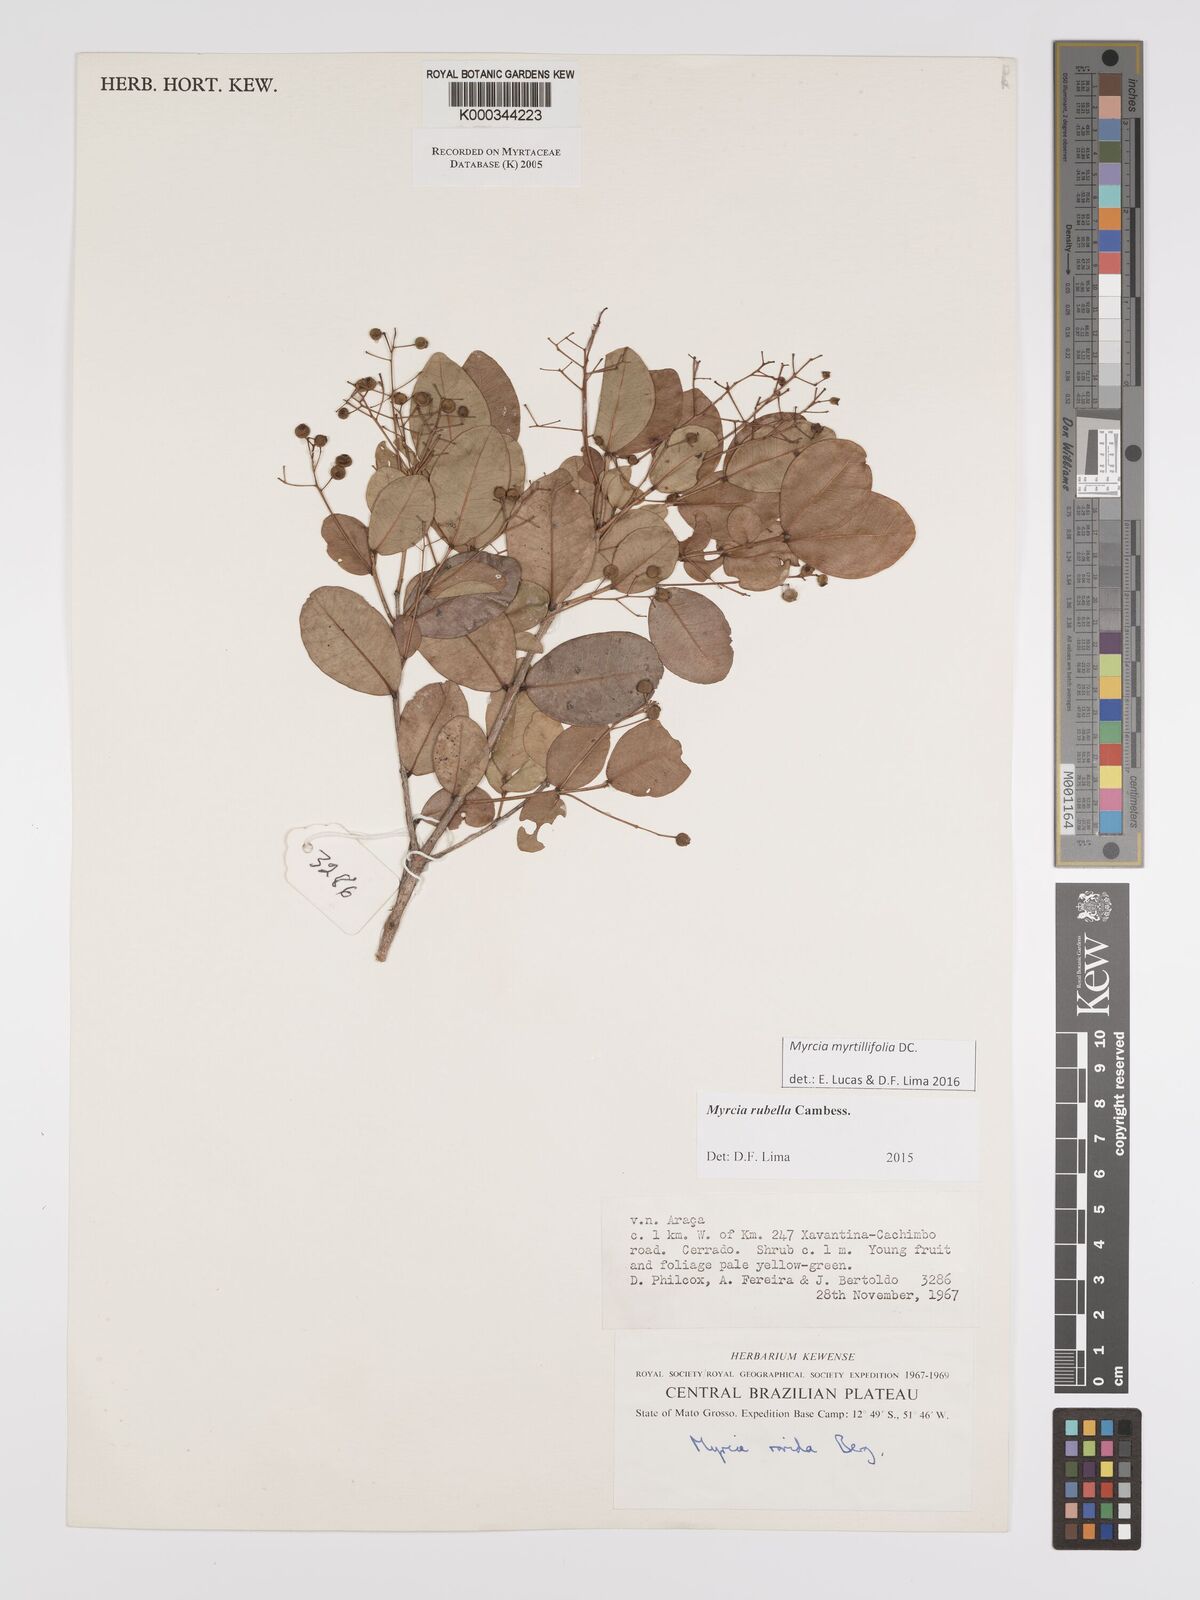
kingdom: Plantae
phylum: Tracheophyta
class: Magnoliopsida
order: Myrtales
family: Myrtaceae
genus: Myrcia
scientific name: Myrcia guianensis
